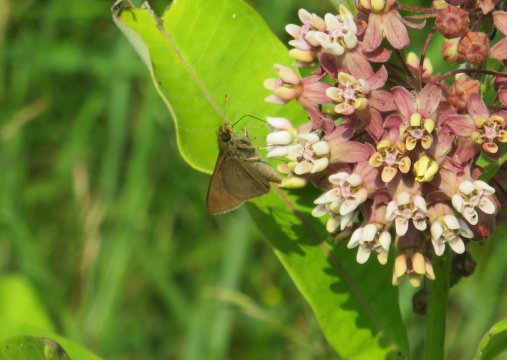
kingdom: Animalia
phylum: Arthropoda
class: Insecta
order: Lepidoptera
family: Hesperiidae
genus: Euphyes
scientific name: Euphyes vestris
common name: Dun Skipper
